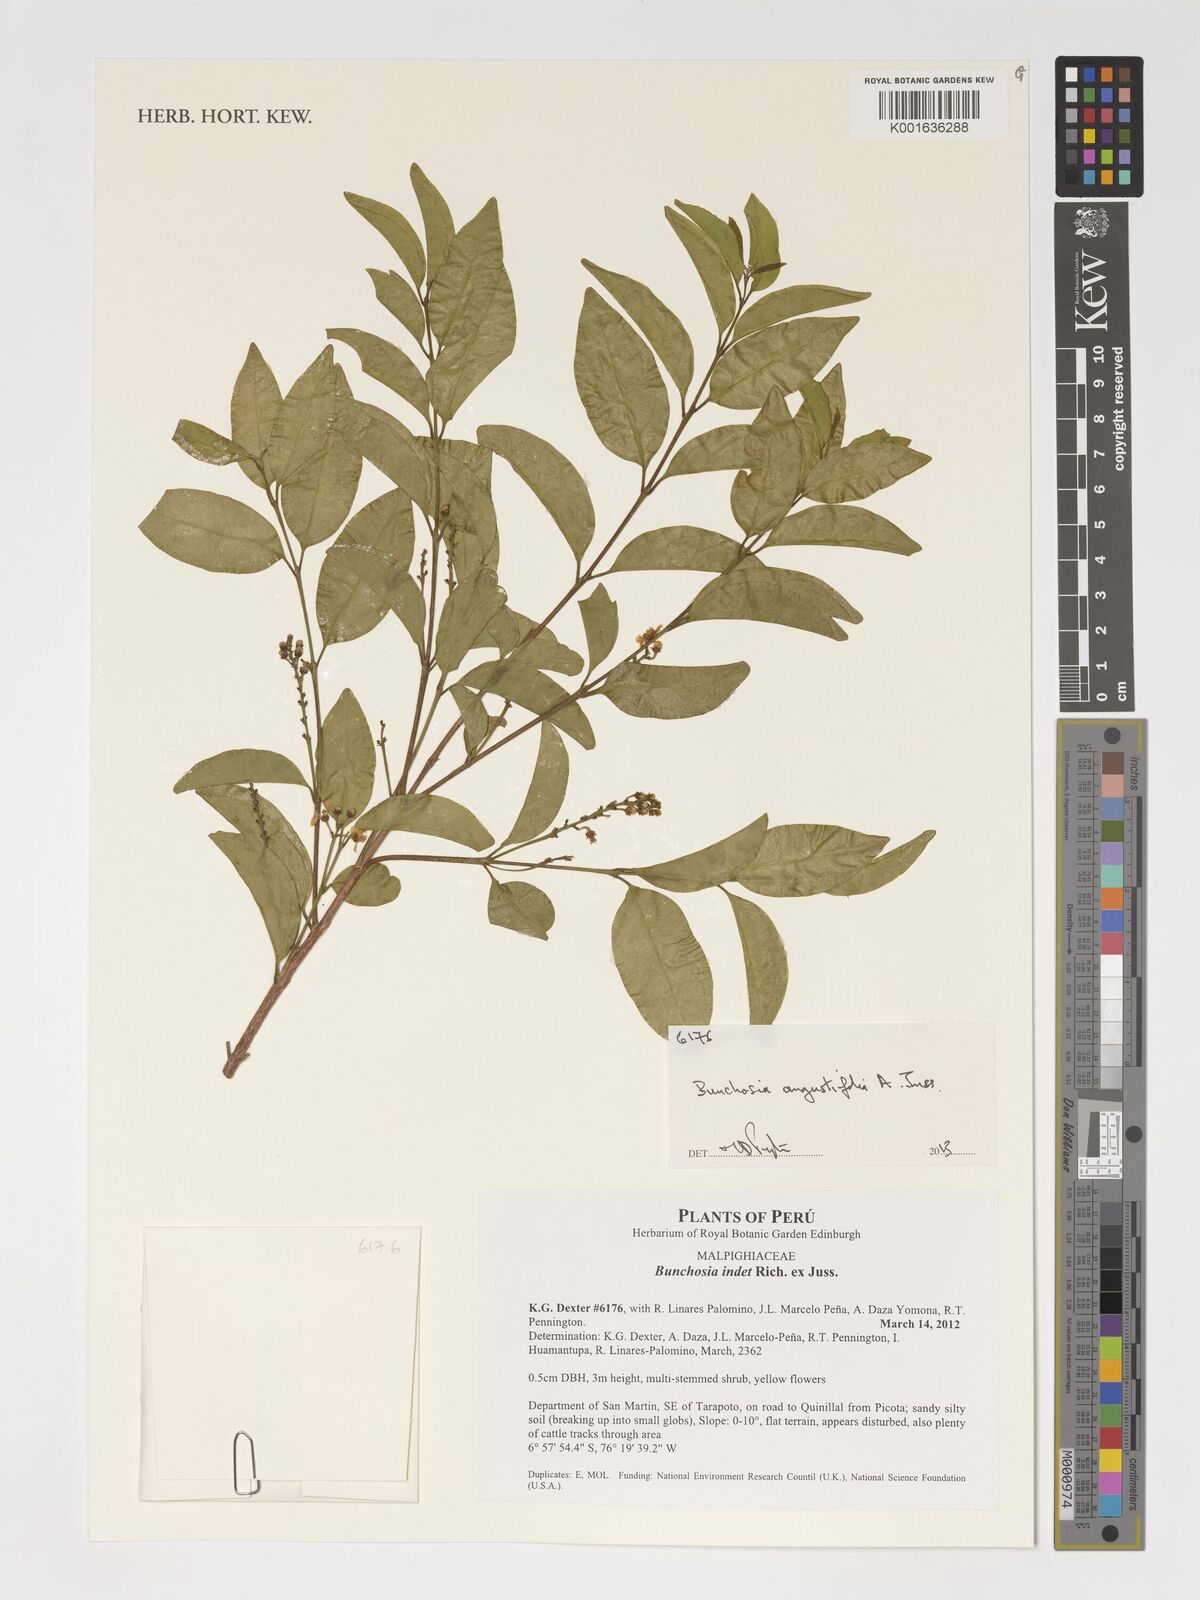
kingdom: Plantae
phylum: Tracheophyta
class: Magnoliopsida
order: Malpighiales
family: Malpighiaceae
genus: Bunchosia
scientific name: Bunchosia angustifolia
